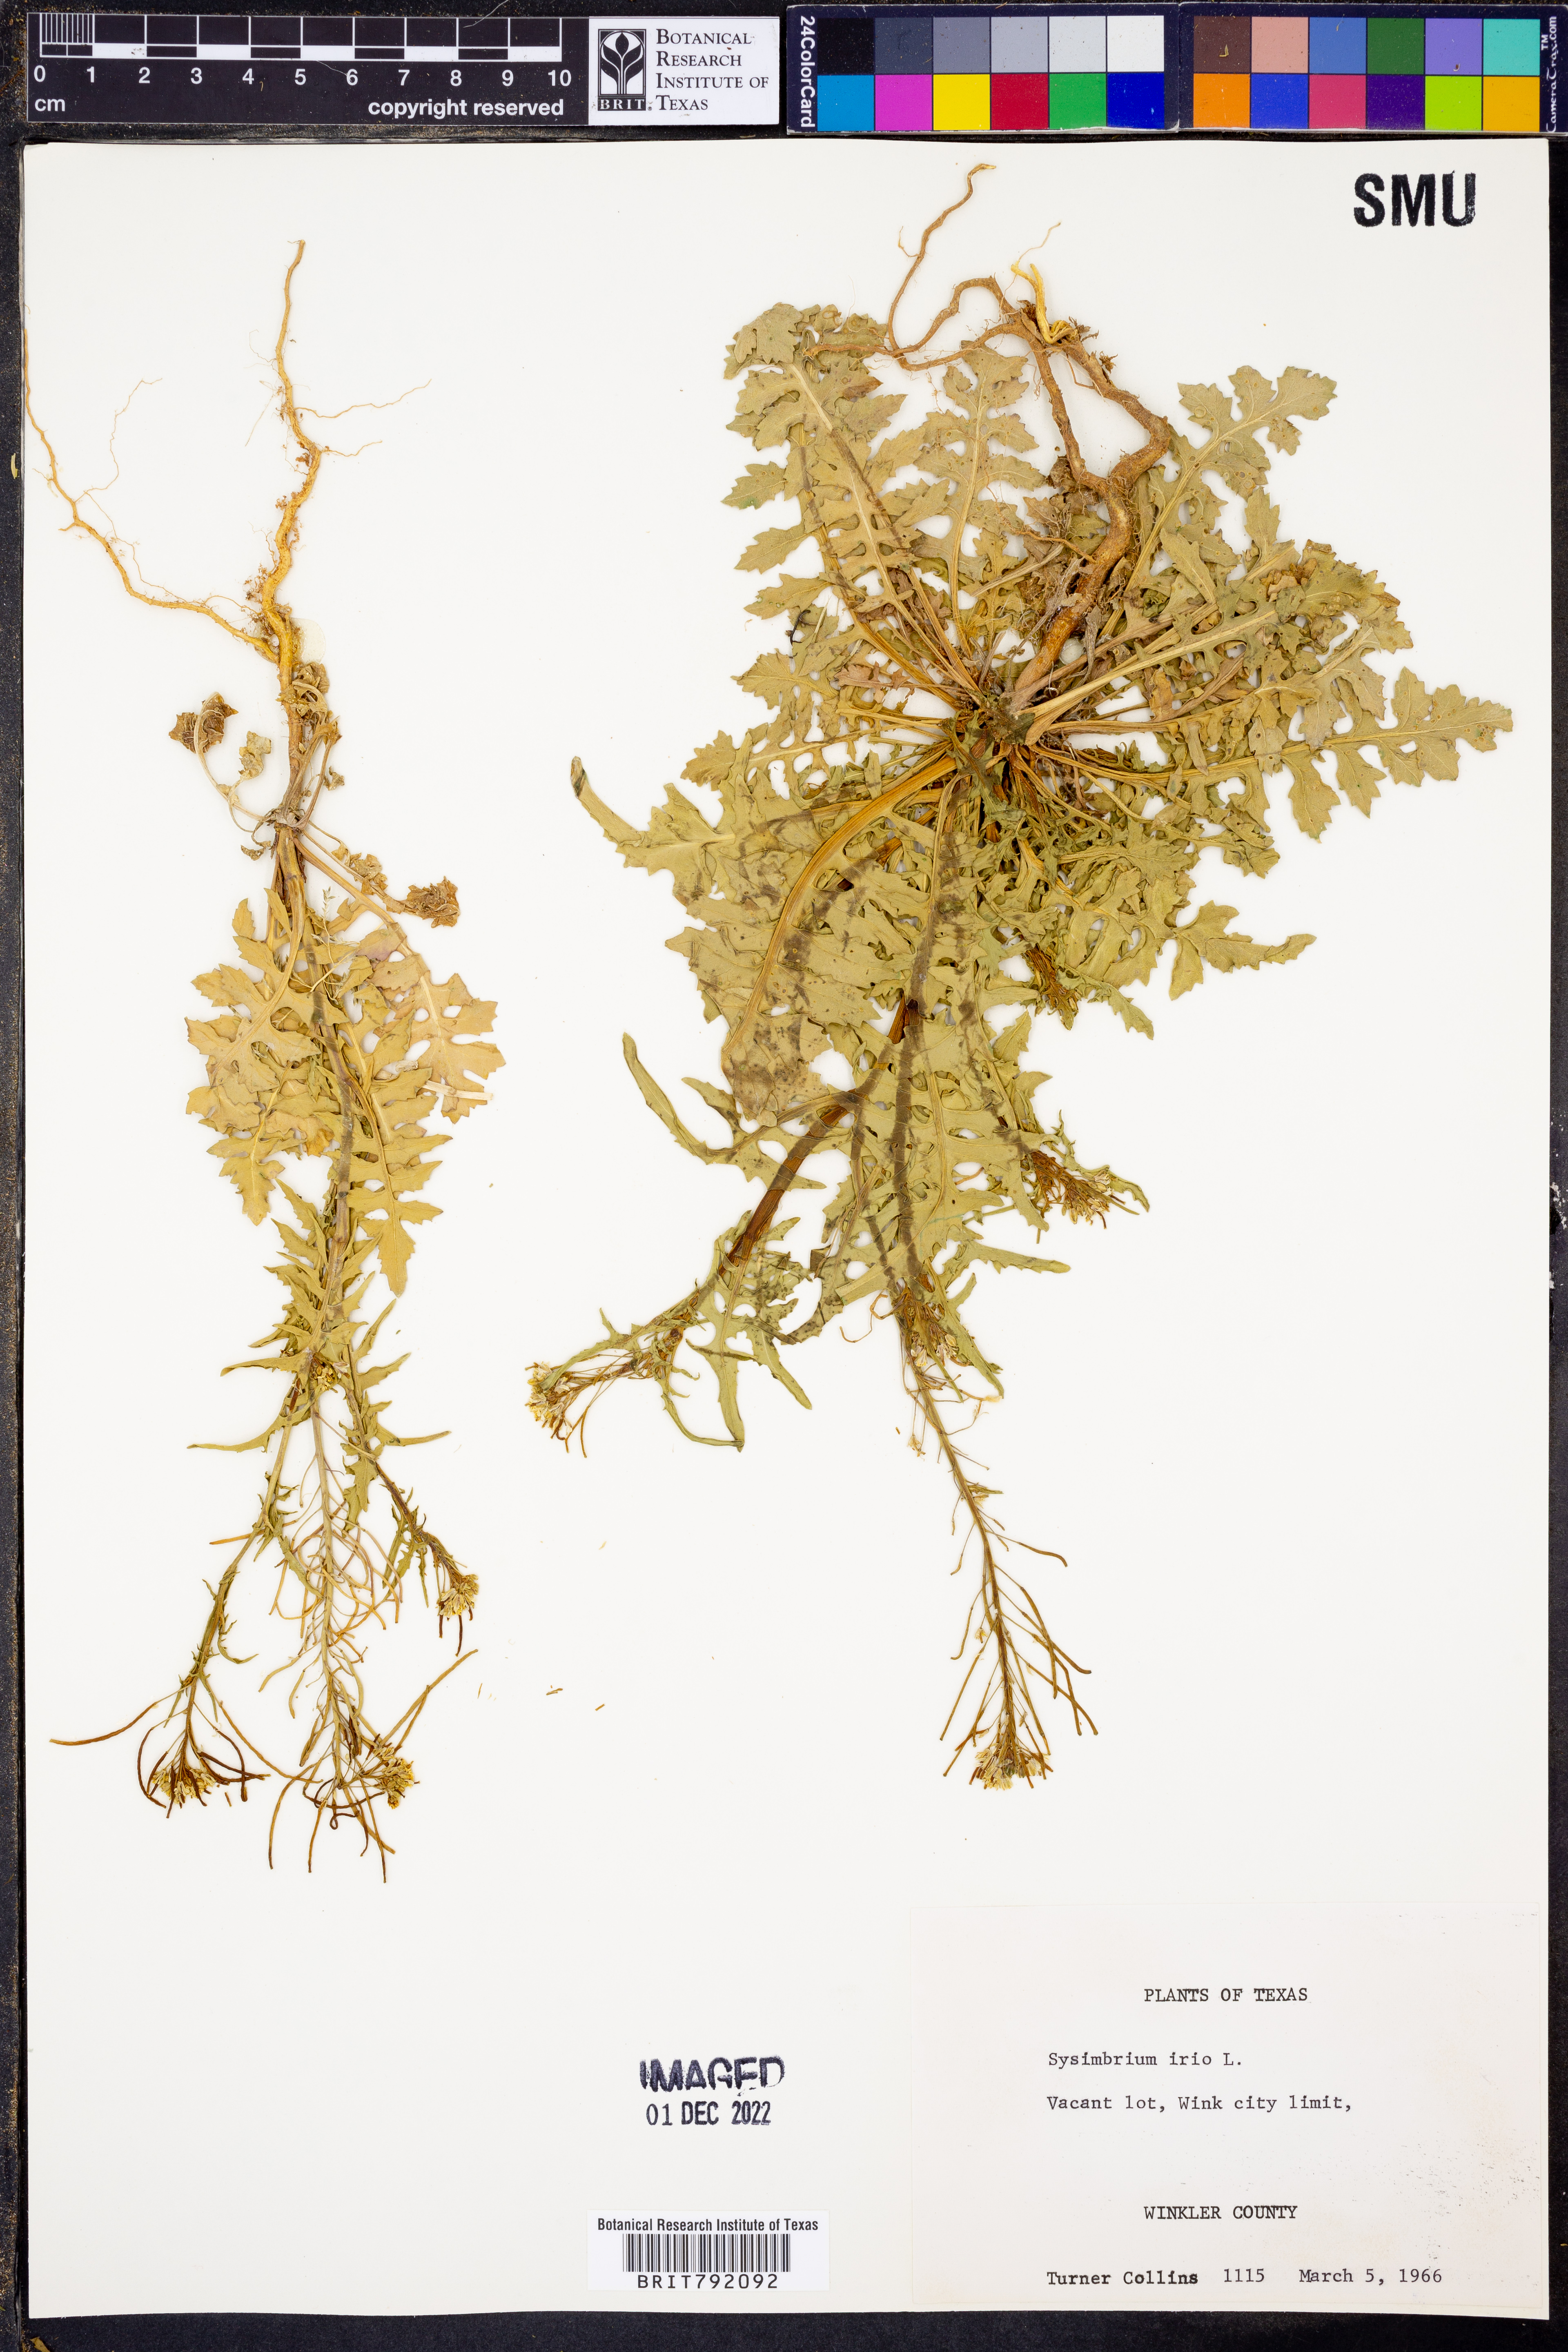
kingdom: Plantae
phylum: Tracheophyta
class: Magnoliopsida
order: Brassicales
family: Brassicaceae
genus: Sisymbrium
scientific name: Sisymbrium irio
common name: London rocket
